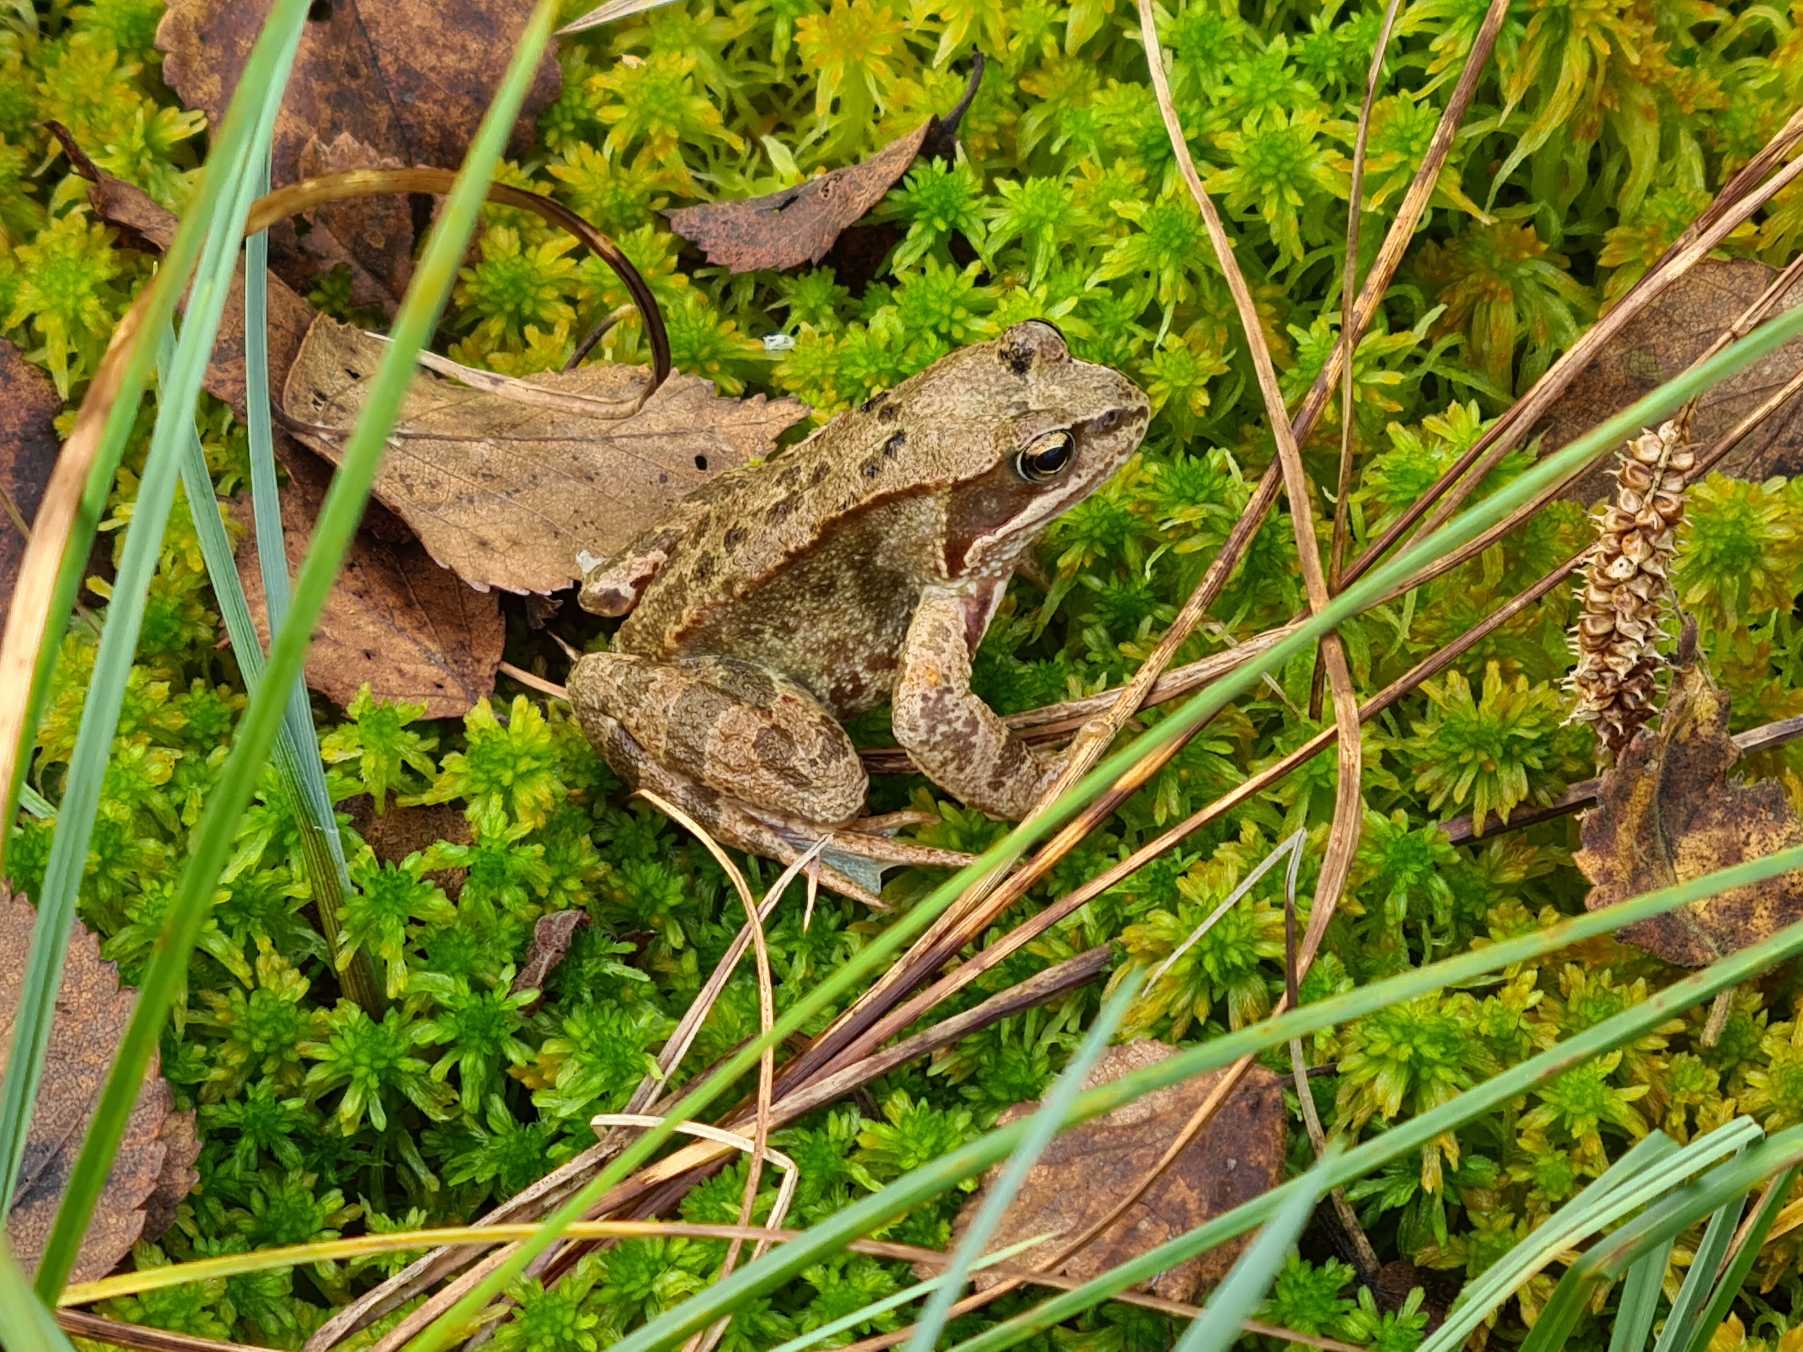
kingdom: Animalia
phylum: Chordata
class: Amphibia
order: Anura
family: Ranidae
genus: Rana
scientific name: Rana temporaria
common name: Butsnudet frø
